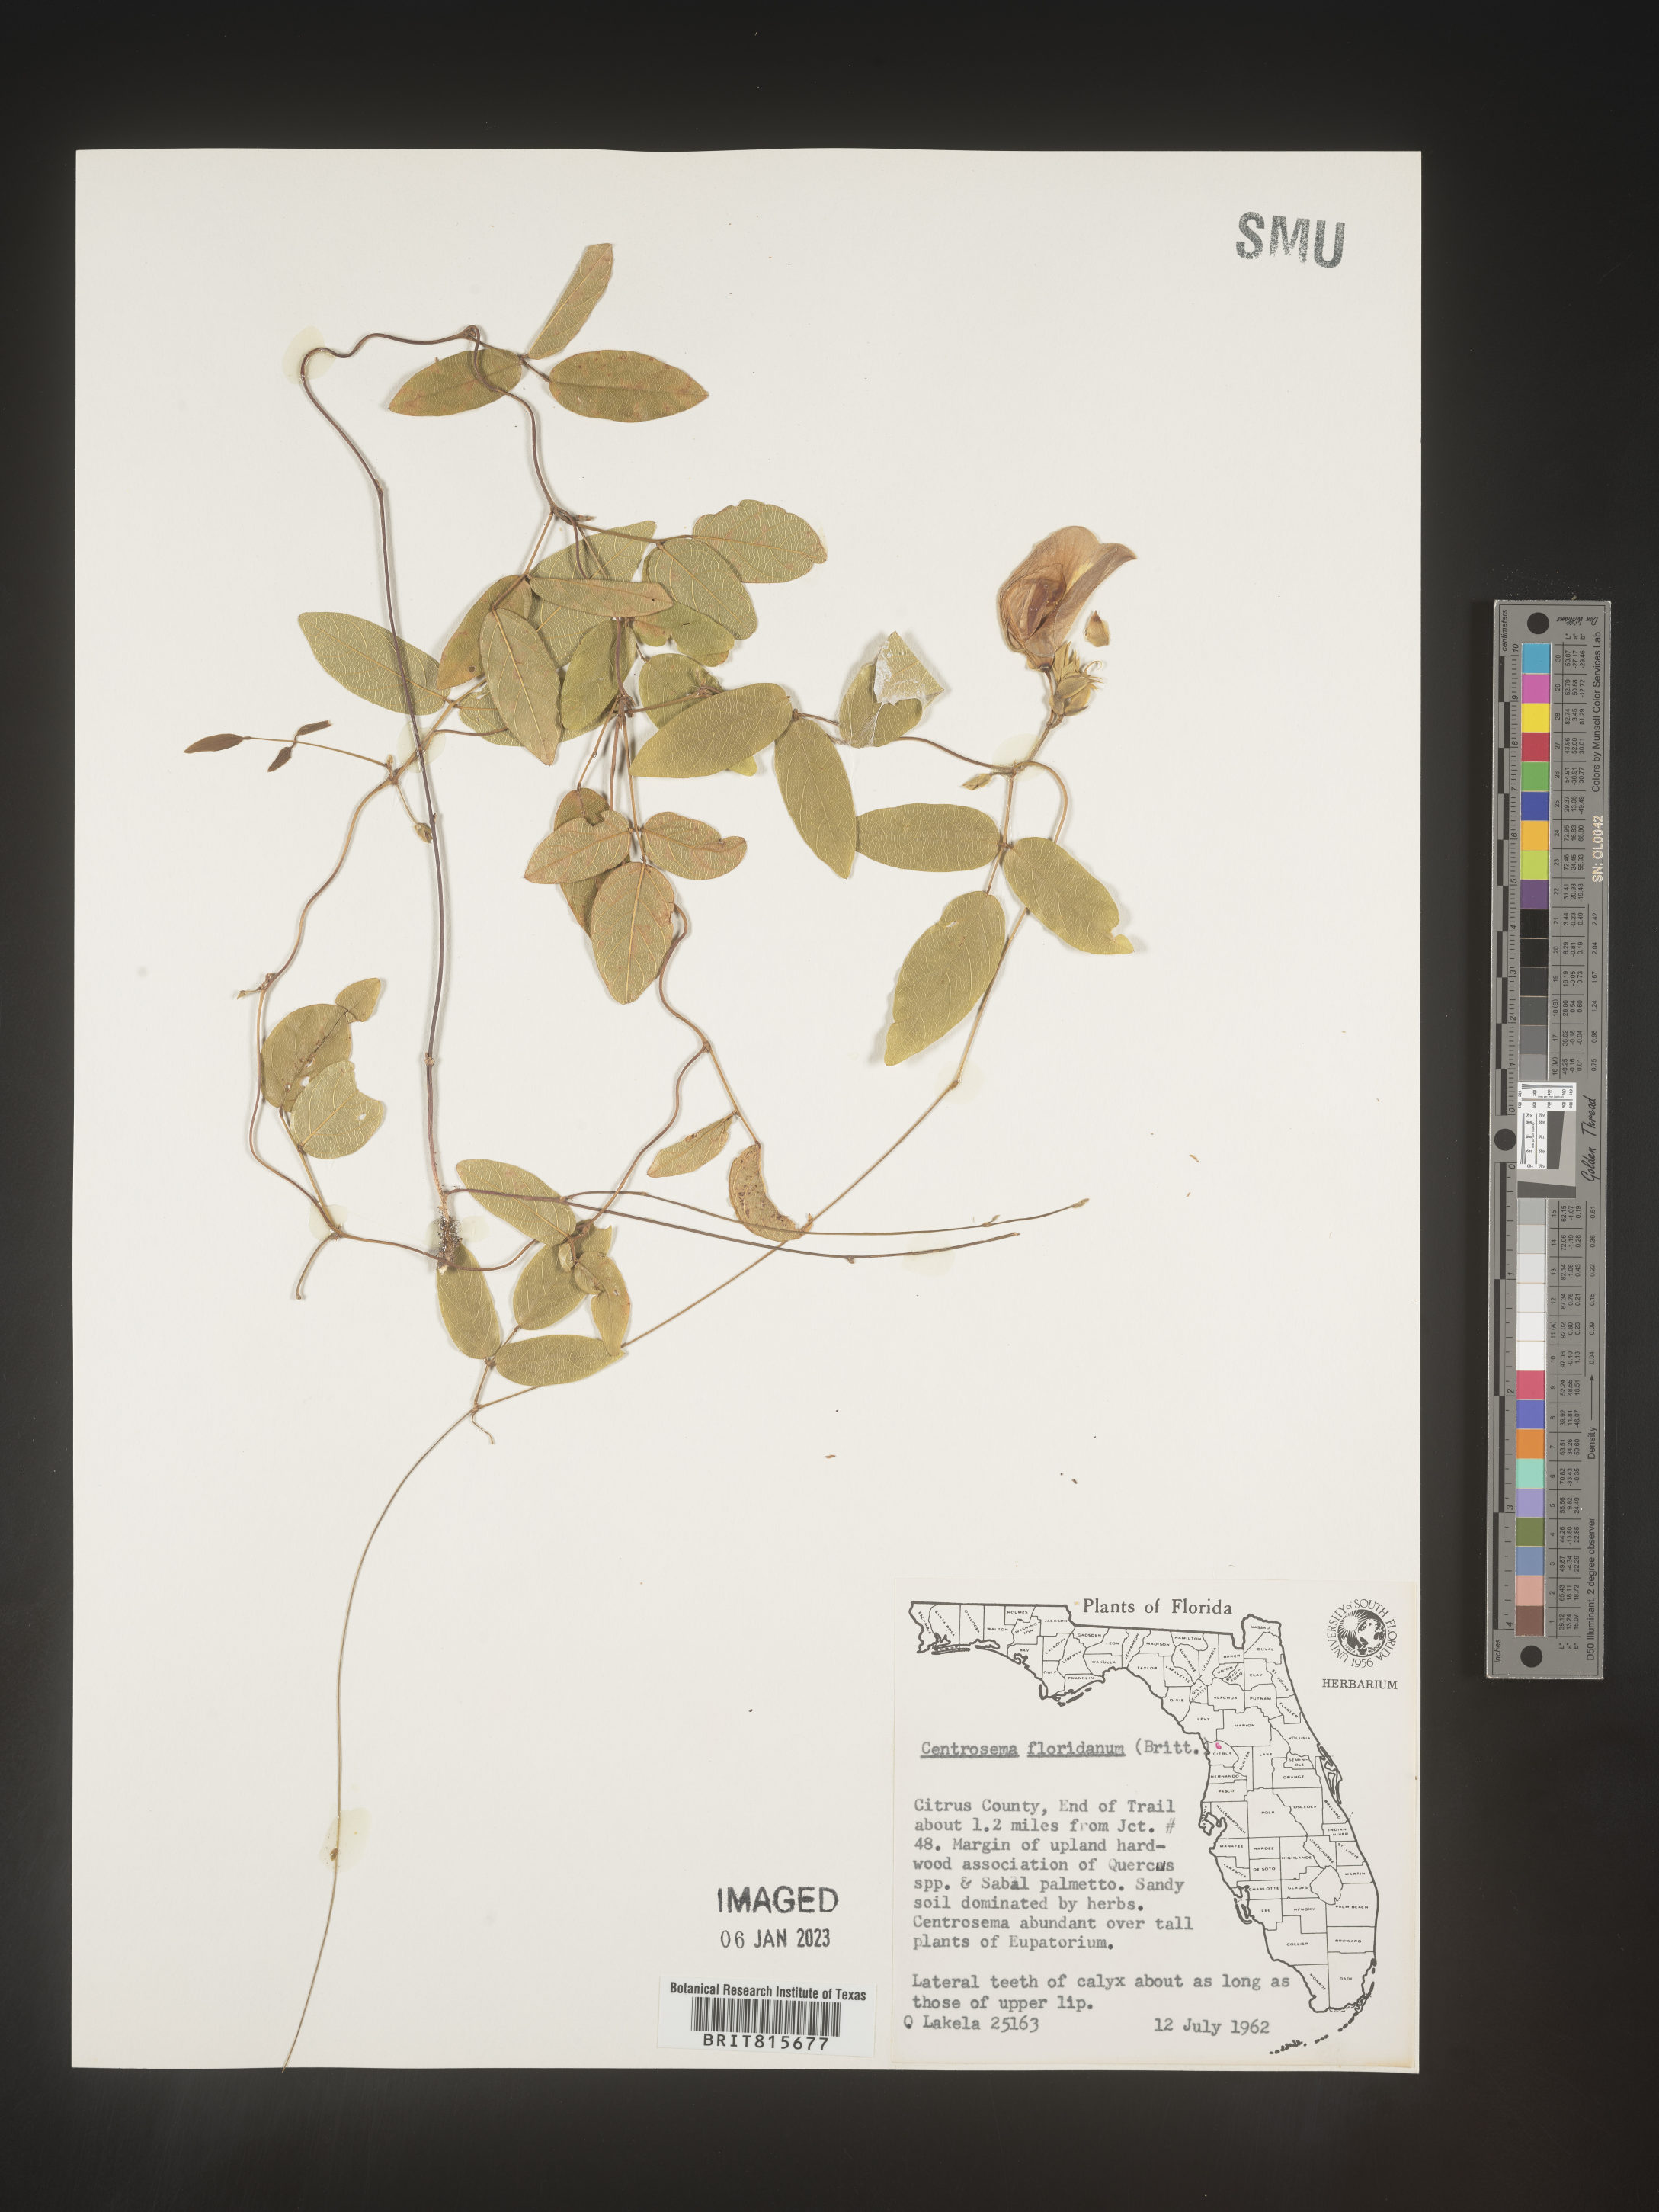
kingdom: Plantae
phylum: Tracheophyta
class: Magnoliopsida
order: Fabales
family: Fabaceae
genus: Centrosema
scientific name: Centrosema
